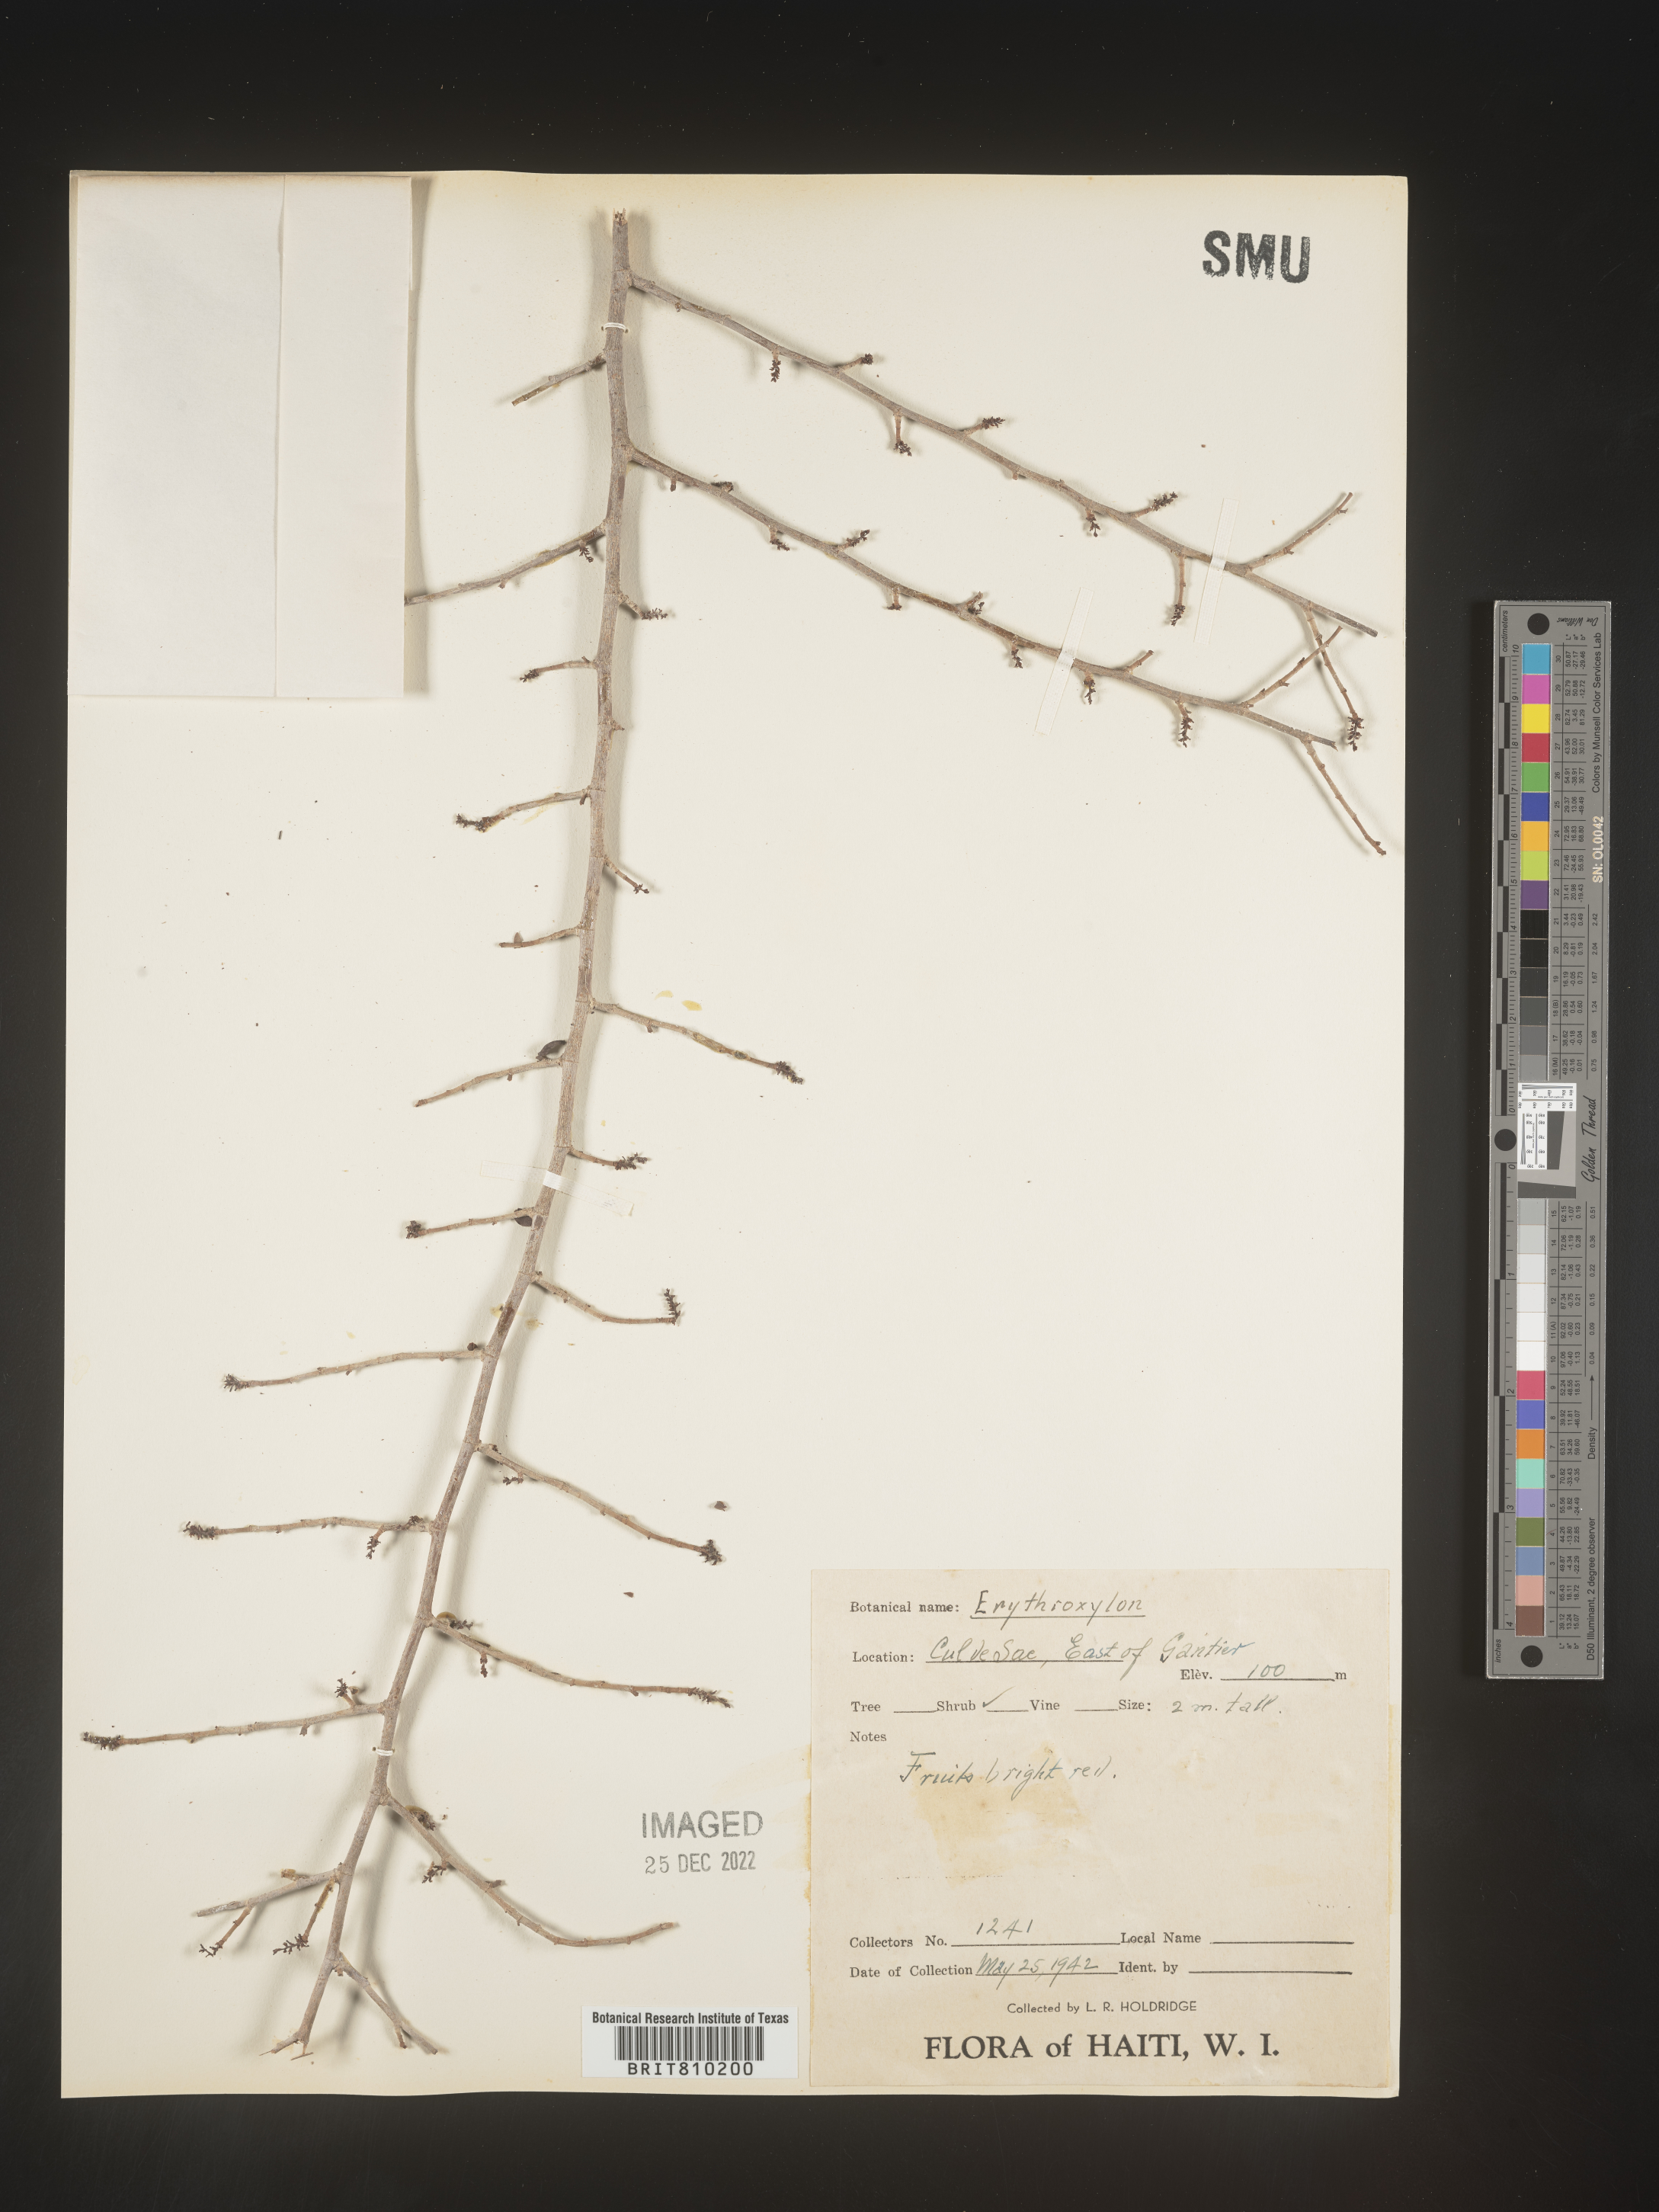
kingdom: Plantae
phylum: Tracheophyta
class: Magnoliopsida
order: Malpighiales
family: Erythroxylaceae
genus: Erythroxylum
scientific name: Erythroxylum
